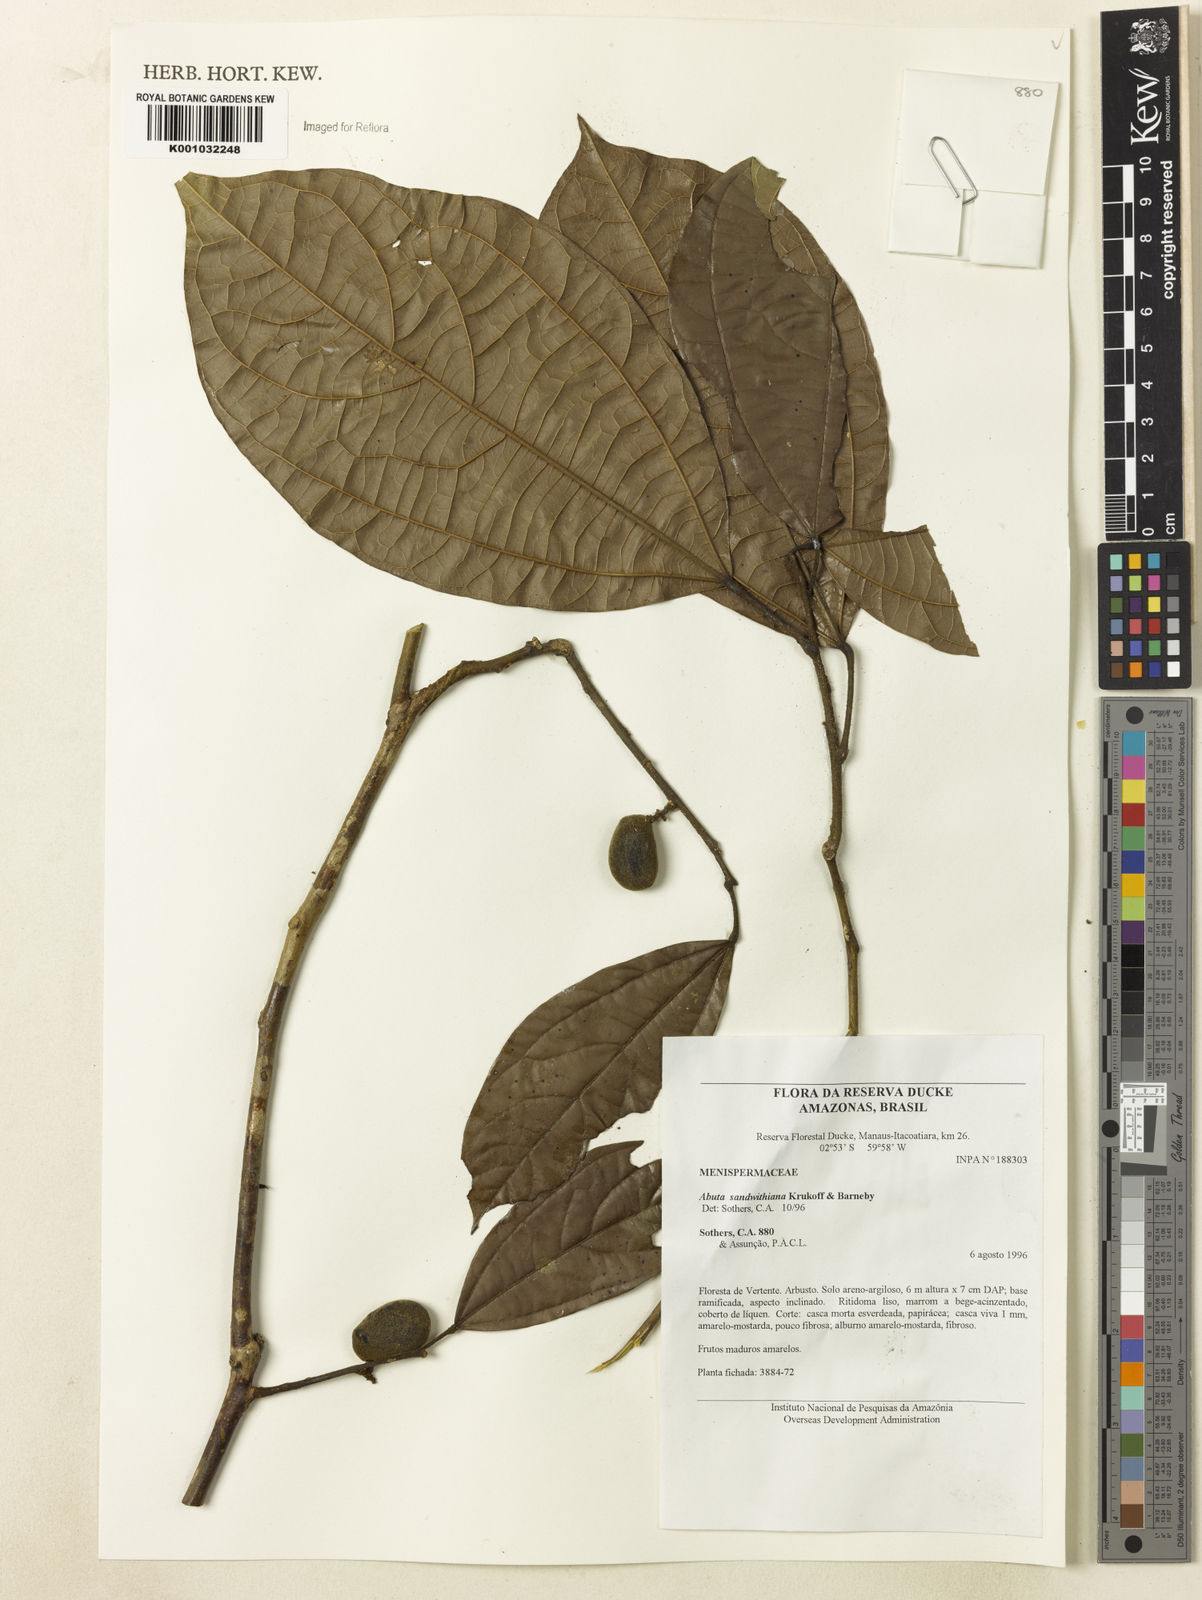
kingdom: Plantae
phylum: Tracheophyta
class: Magnoliopsida
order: Ranunculales
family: Menispermaceae
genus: Abuta
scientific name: Abuta sandwithiana
